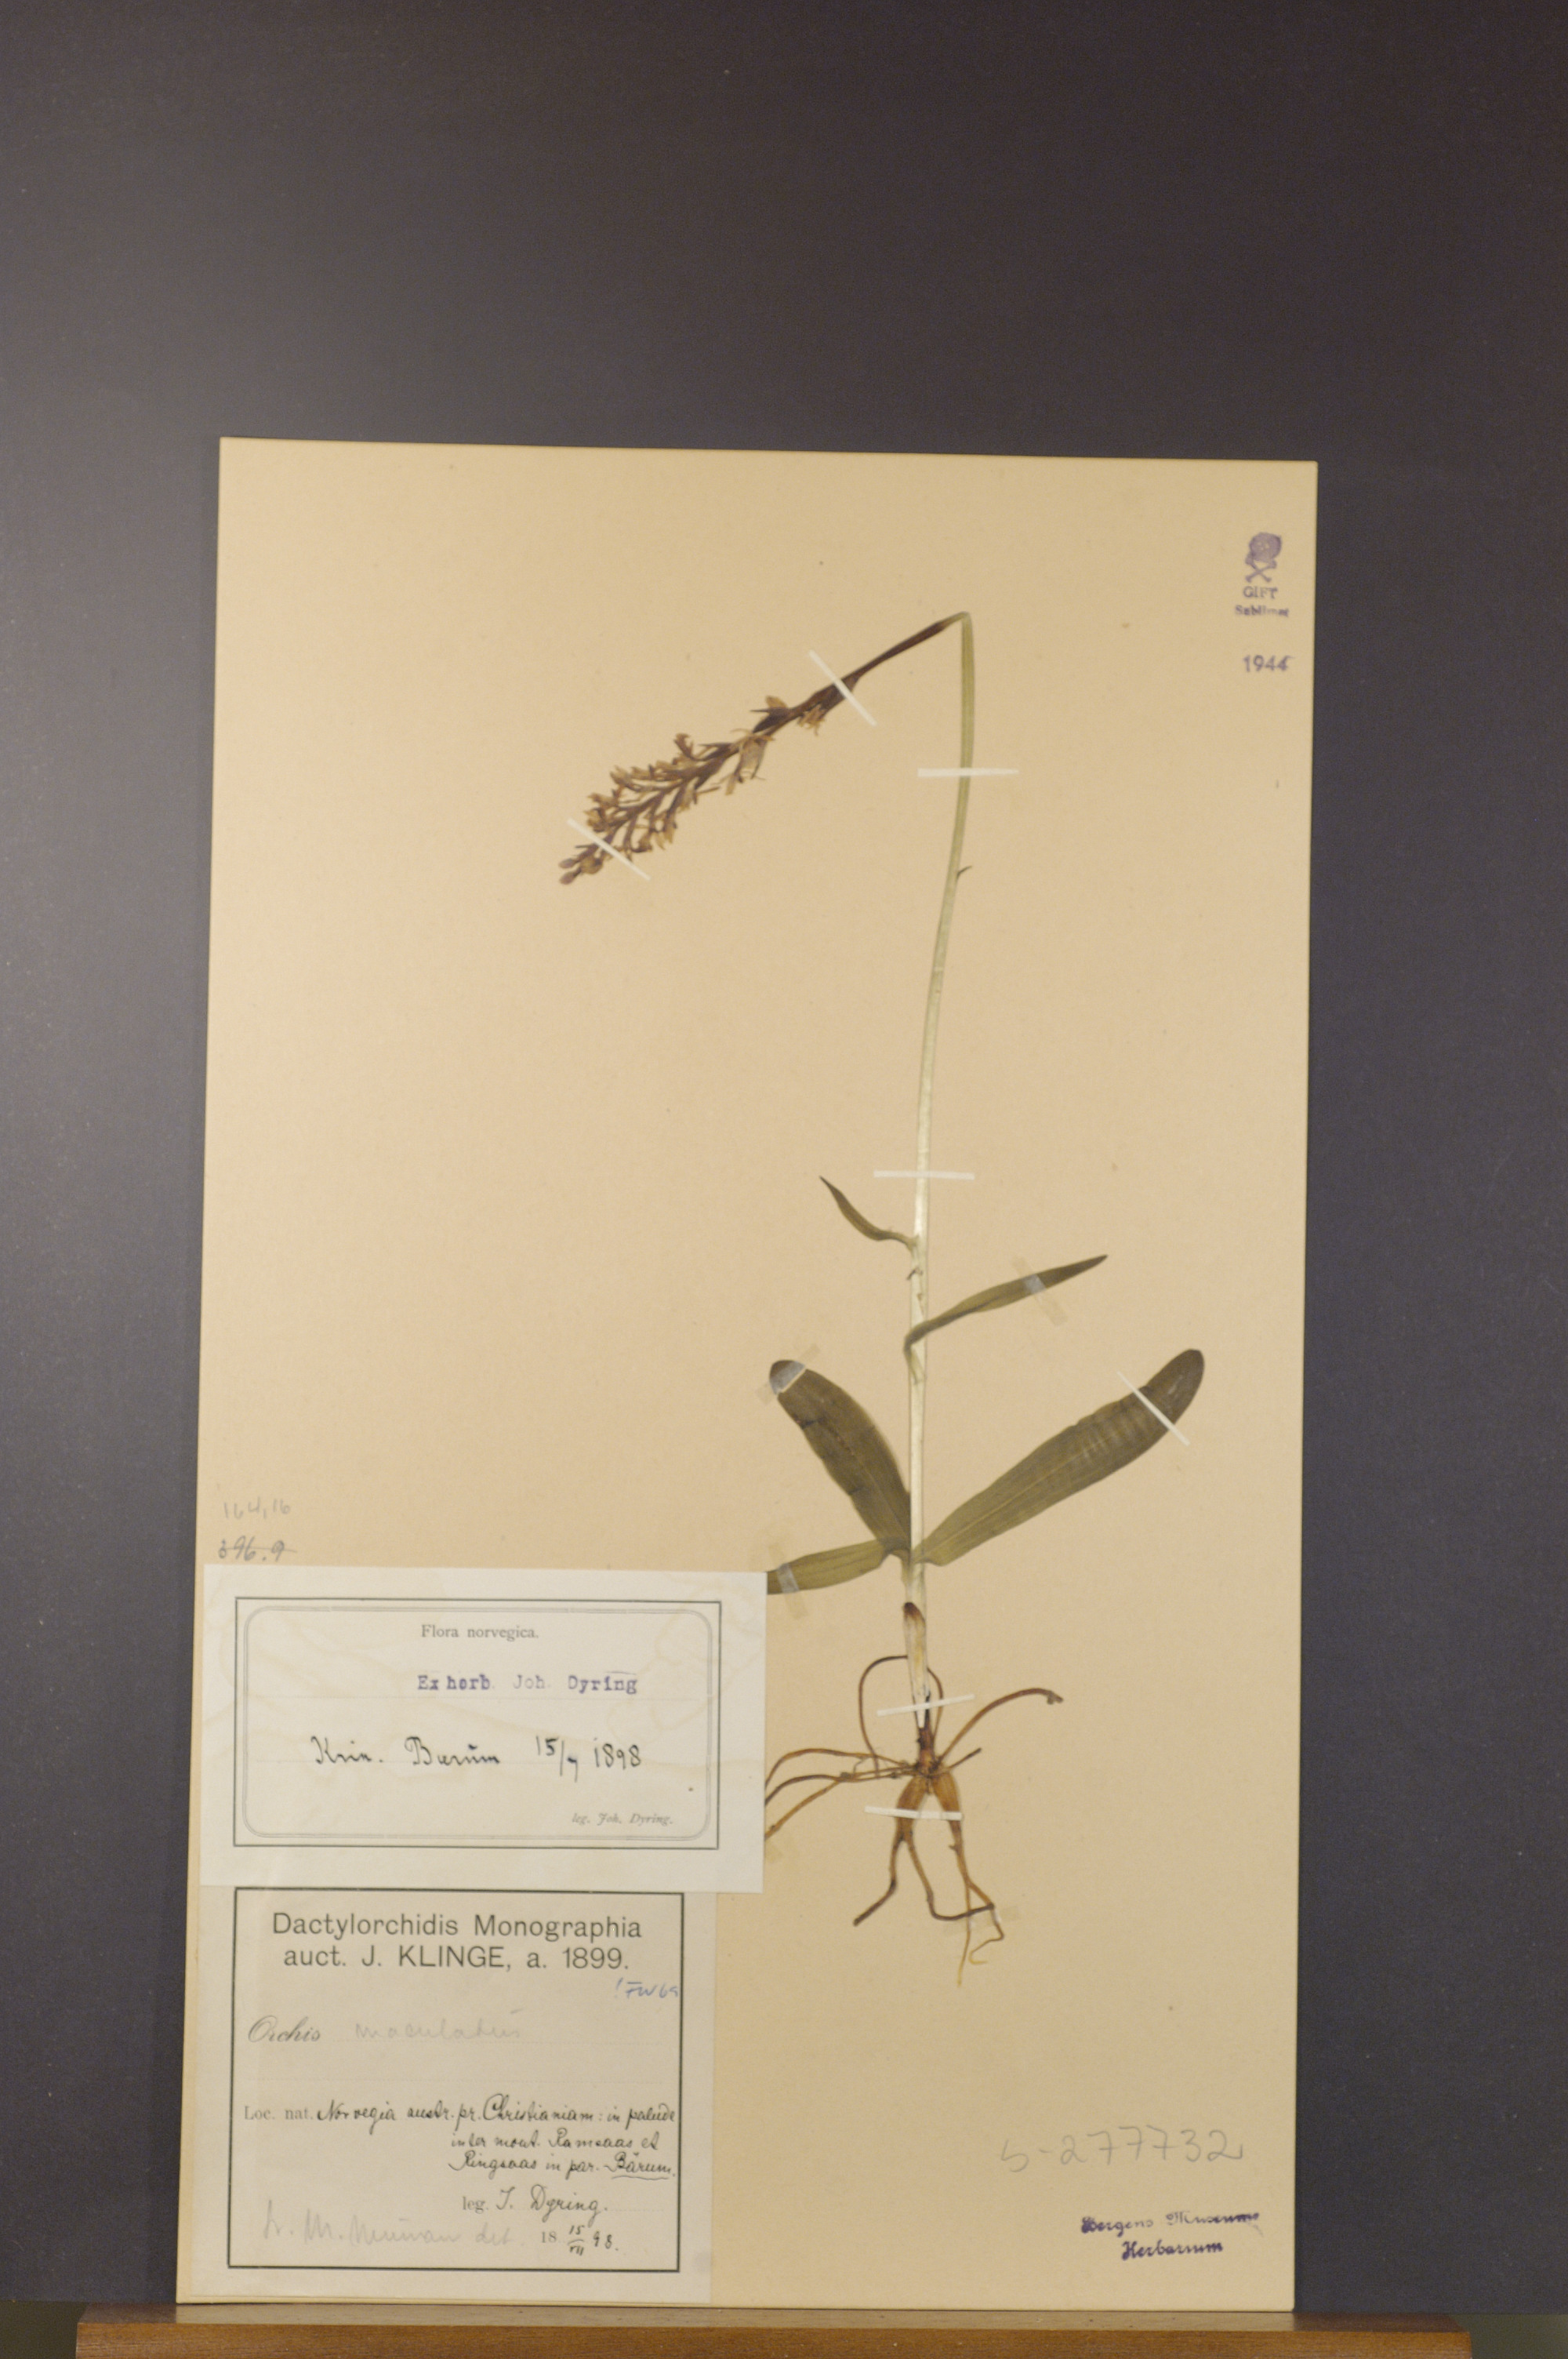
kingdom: Plantae
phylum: Tracheophyta
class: Liliopsida
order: Asparagales
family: Orchidaceae
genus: Dactylorhiza
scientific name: Dactylorhiza maculata
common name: Heath spotted-orchid
